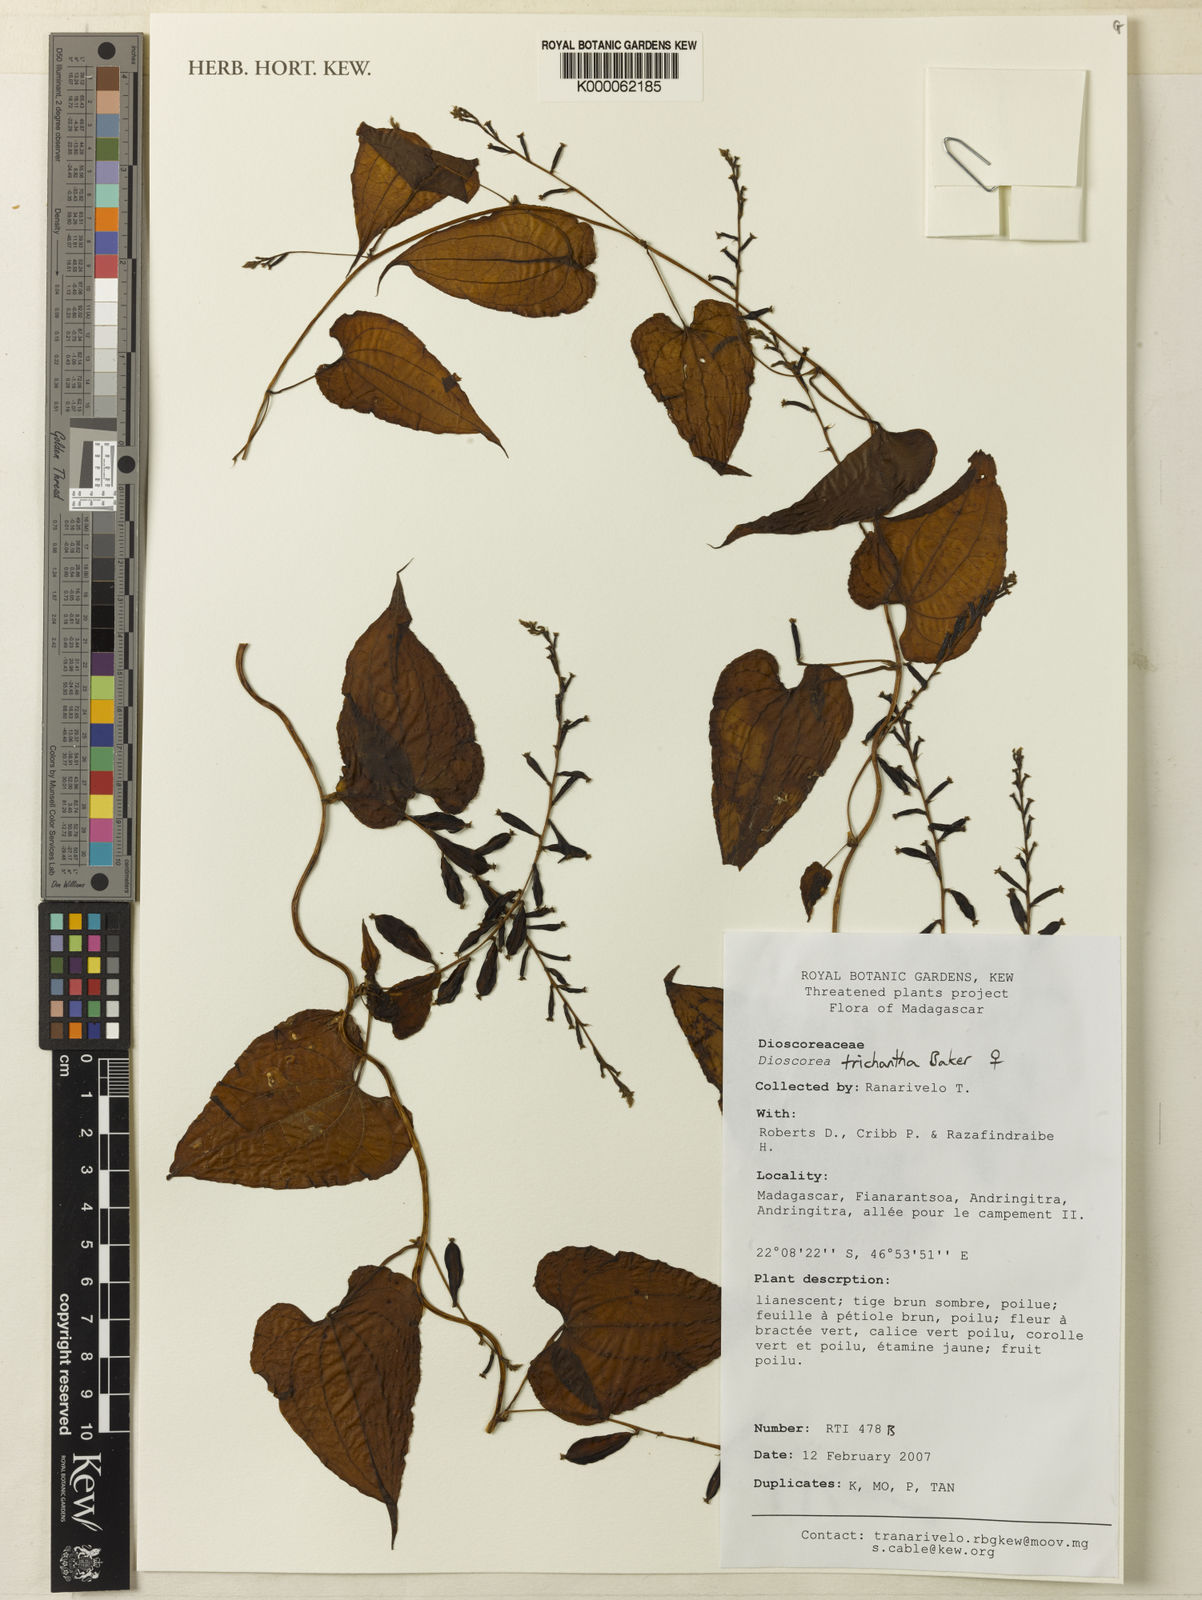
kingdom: Plantae
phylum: Tracheophyta
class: Liliopsida
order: Dioscoreales
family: Dioscoreaceae
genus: Dioscorea
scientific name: Dioscorea trichantha
